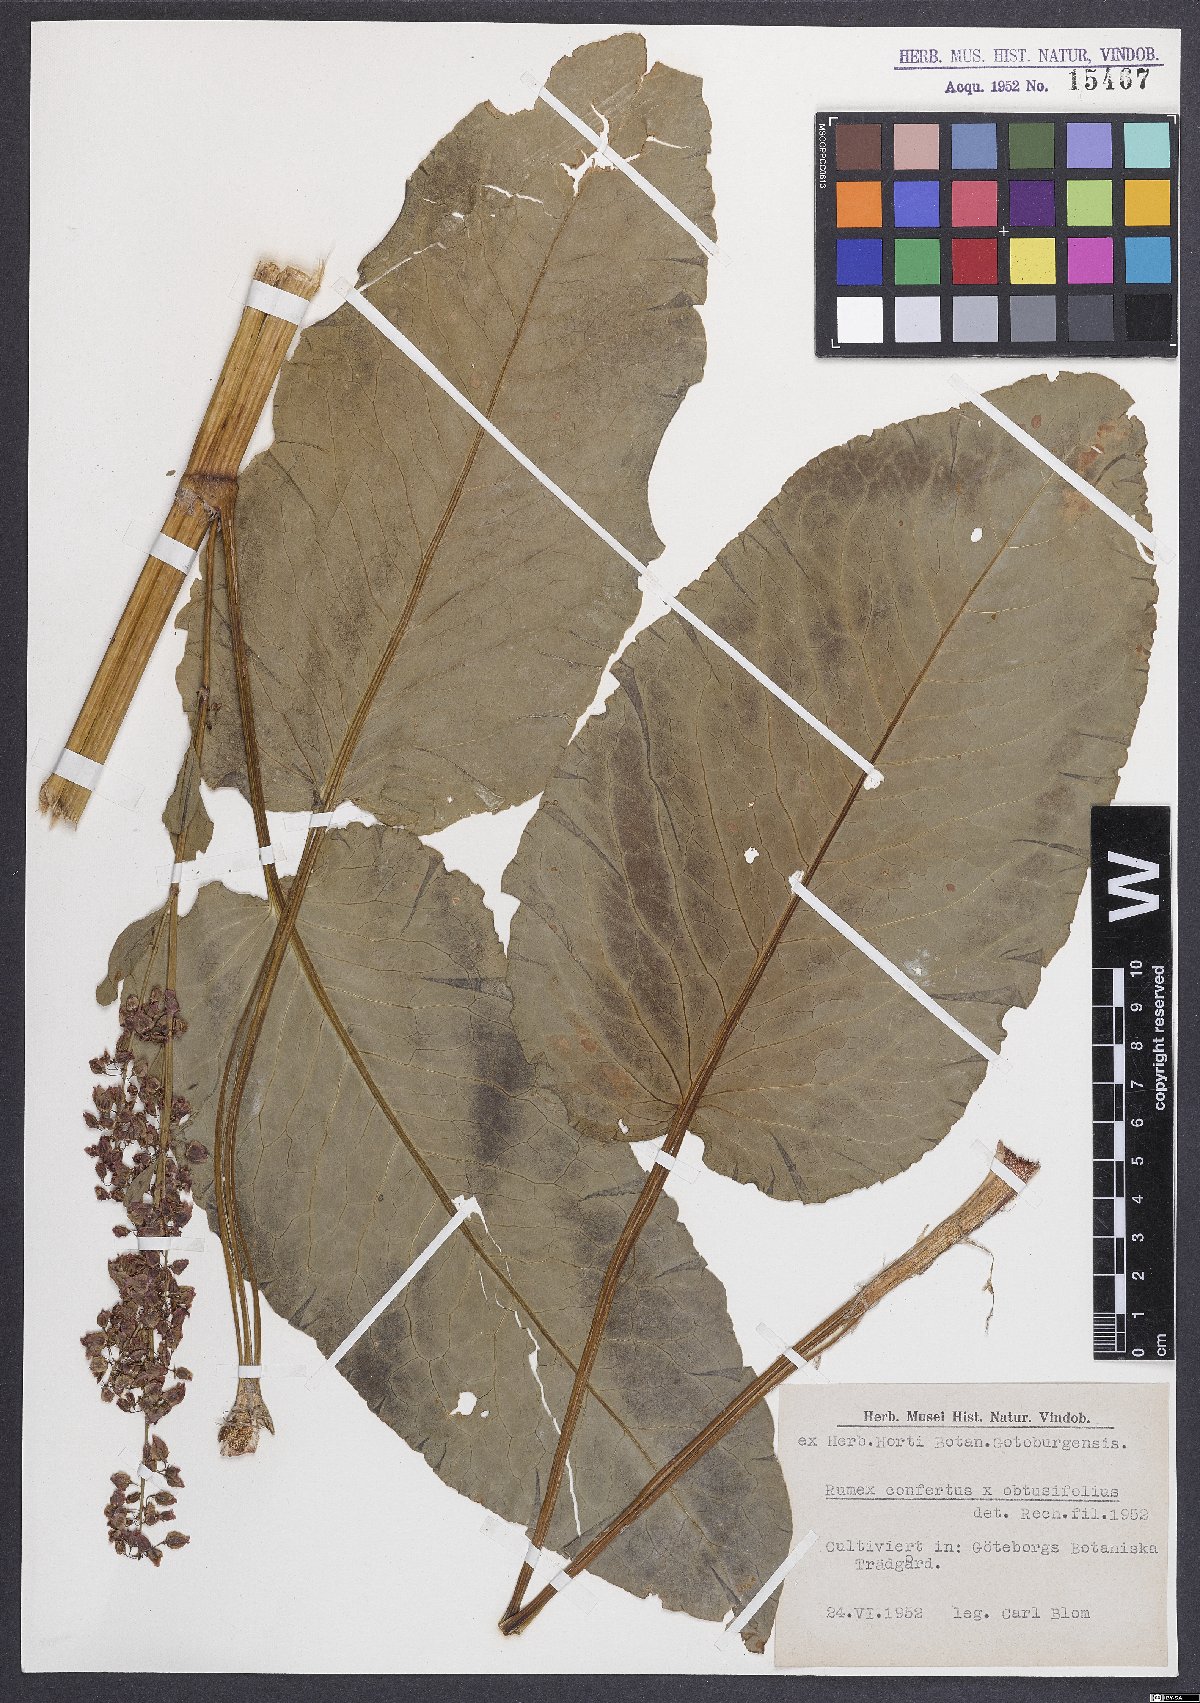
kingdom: Plantae
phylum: Tracheophyta
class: Magnoliopsida
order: Caryophyllales
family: Polygonaceae
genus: Rumex
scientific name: Rumex borbasii
